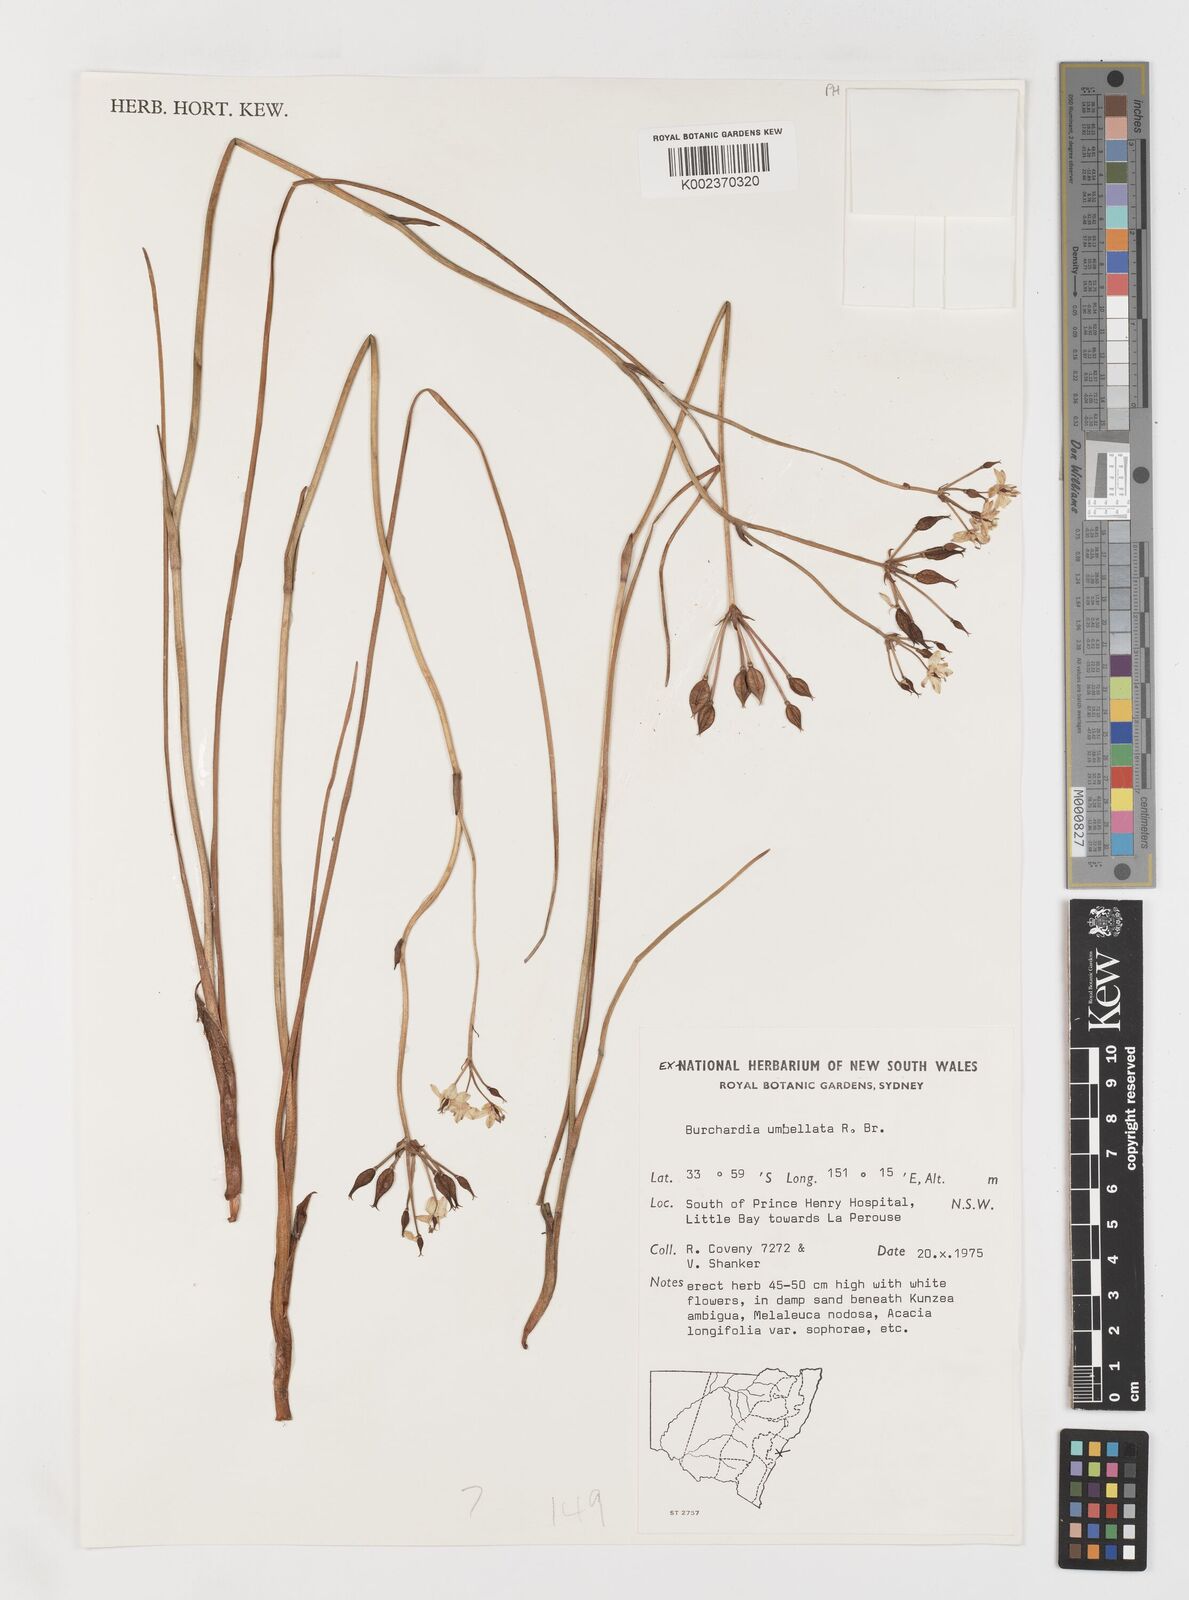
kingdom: Plantae
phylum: Tracheophyta
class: Liliopsida
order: Liliales
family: Colchicaceae
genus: Burchardia
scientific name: Burchardia umbellata
